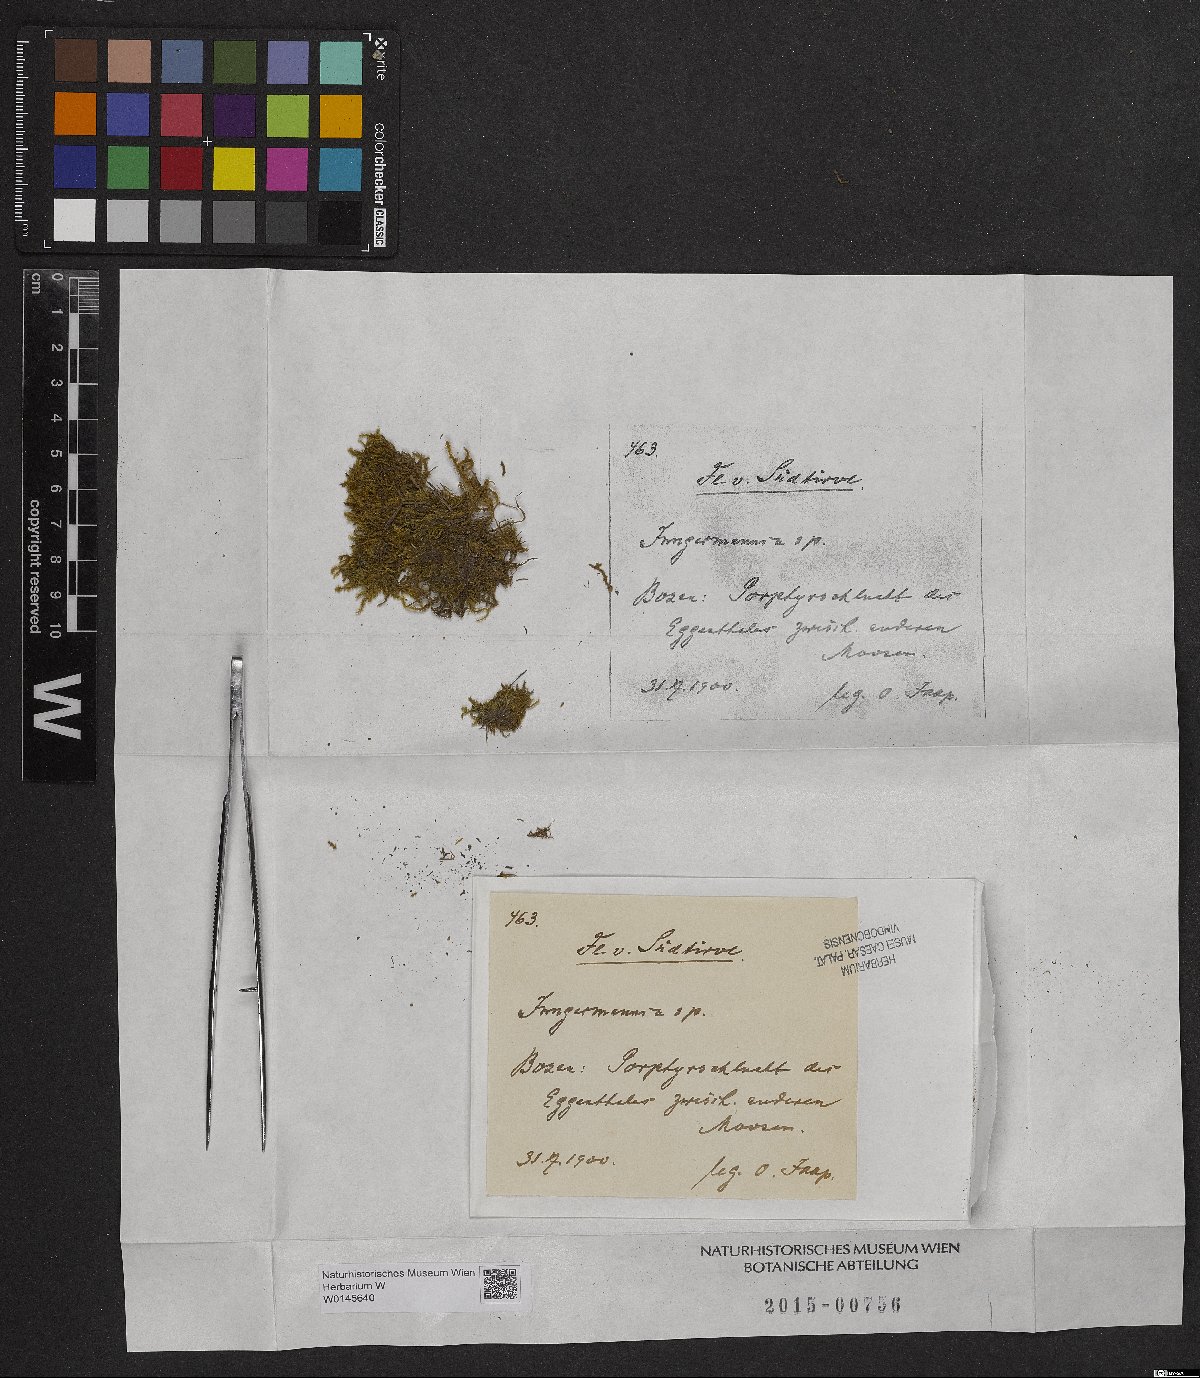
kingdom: Plantae
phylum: Marchantiophyta
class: Jungermanniopsida
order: Jungermanniales
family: Jungermanniaceae
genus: Jungermannia
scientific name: Jungermannia
